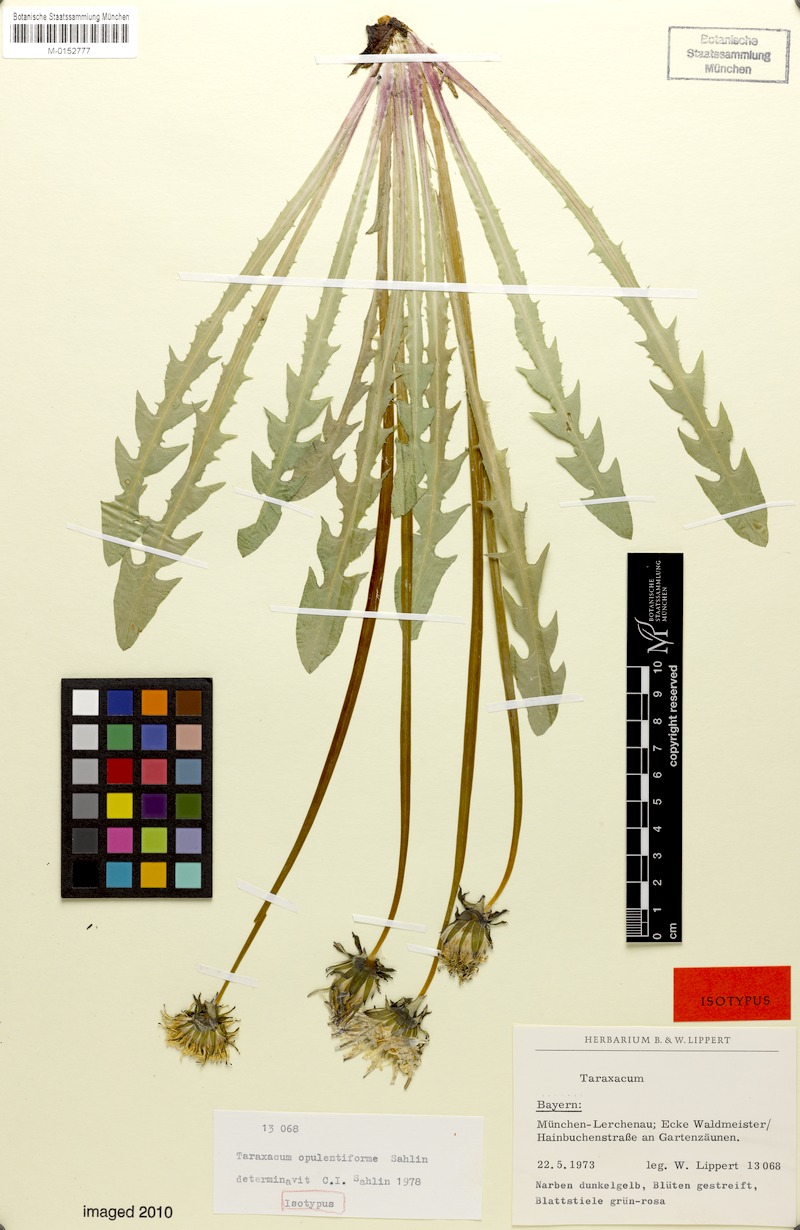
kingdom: Plantae
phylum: Tracheophyta
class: Magnoliopsida
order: Asterales
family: Asteraceae
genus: Taraxacum
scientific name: Taraxacum opulentiforme
